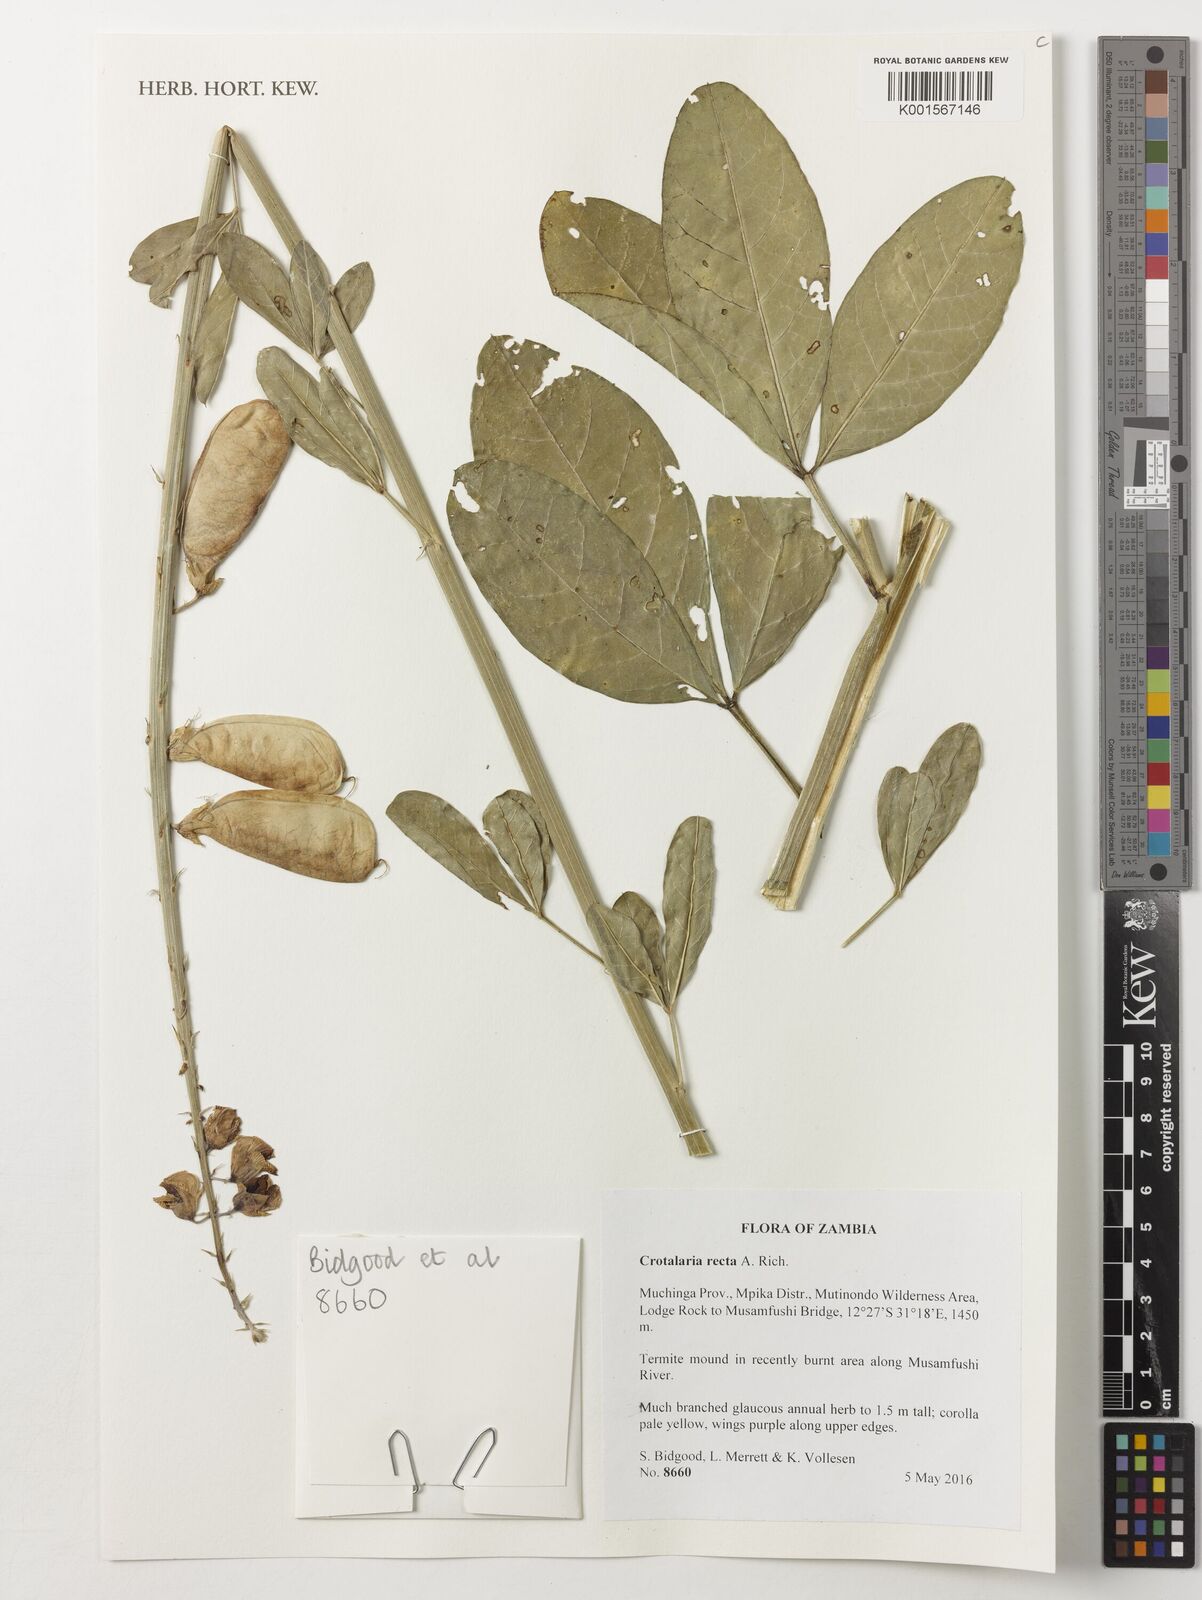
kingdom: Plantae
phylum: Tracheophyta
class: Magnoliopsida
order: Fabales
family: Fabaceae
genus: Crotalaria
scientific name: Crotalaria recta
